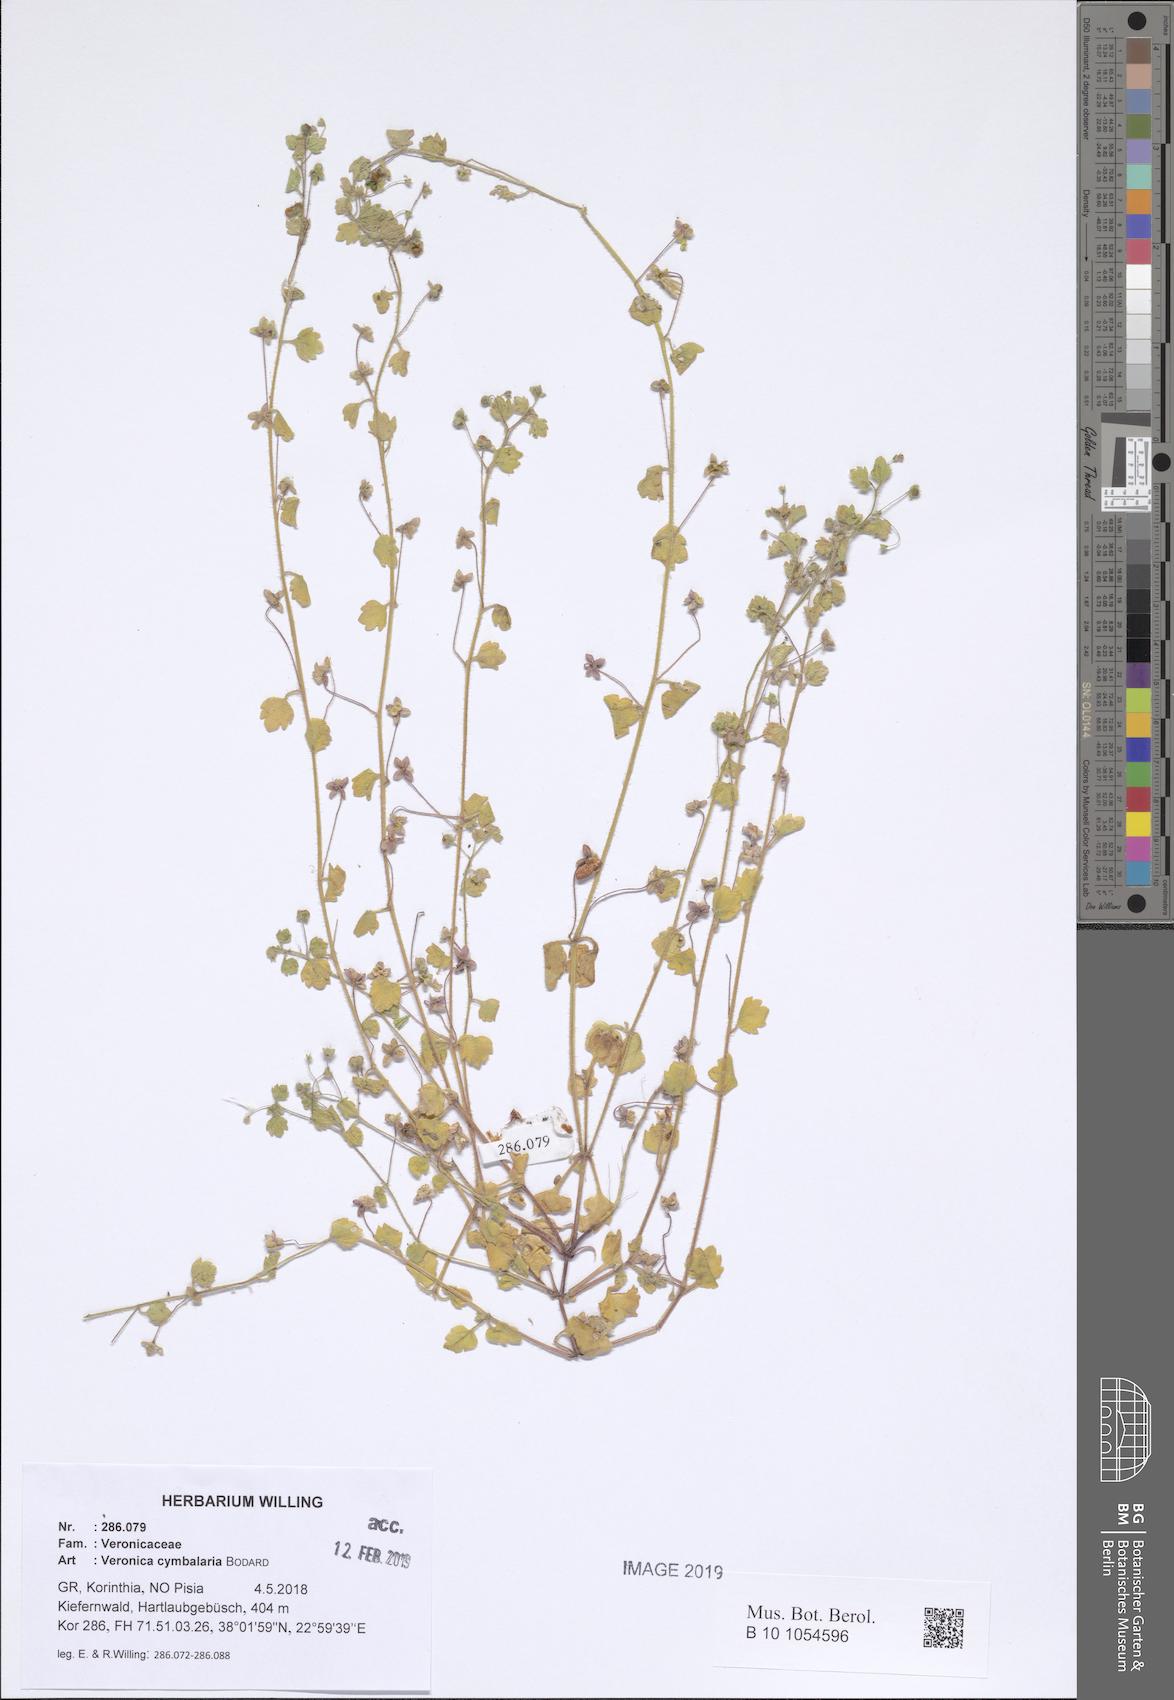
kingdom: Plantae
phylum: Tracheophyta
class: Magnoliopsida
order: Lamiales
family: Plantaginaceae
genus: Veronica
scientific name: Veronica cymbalaria
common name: Pale speedwell
